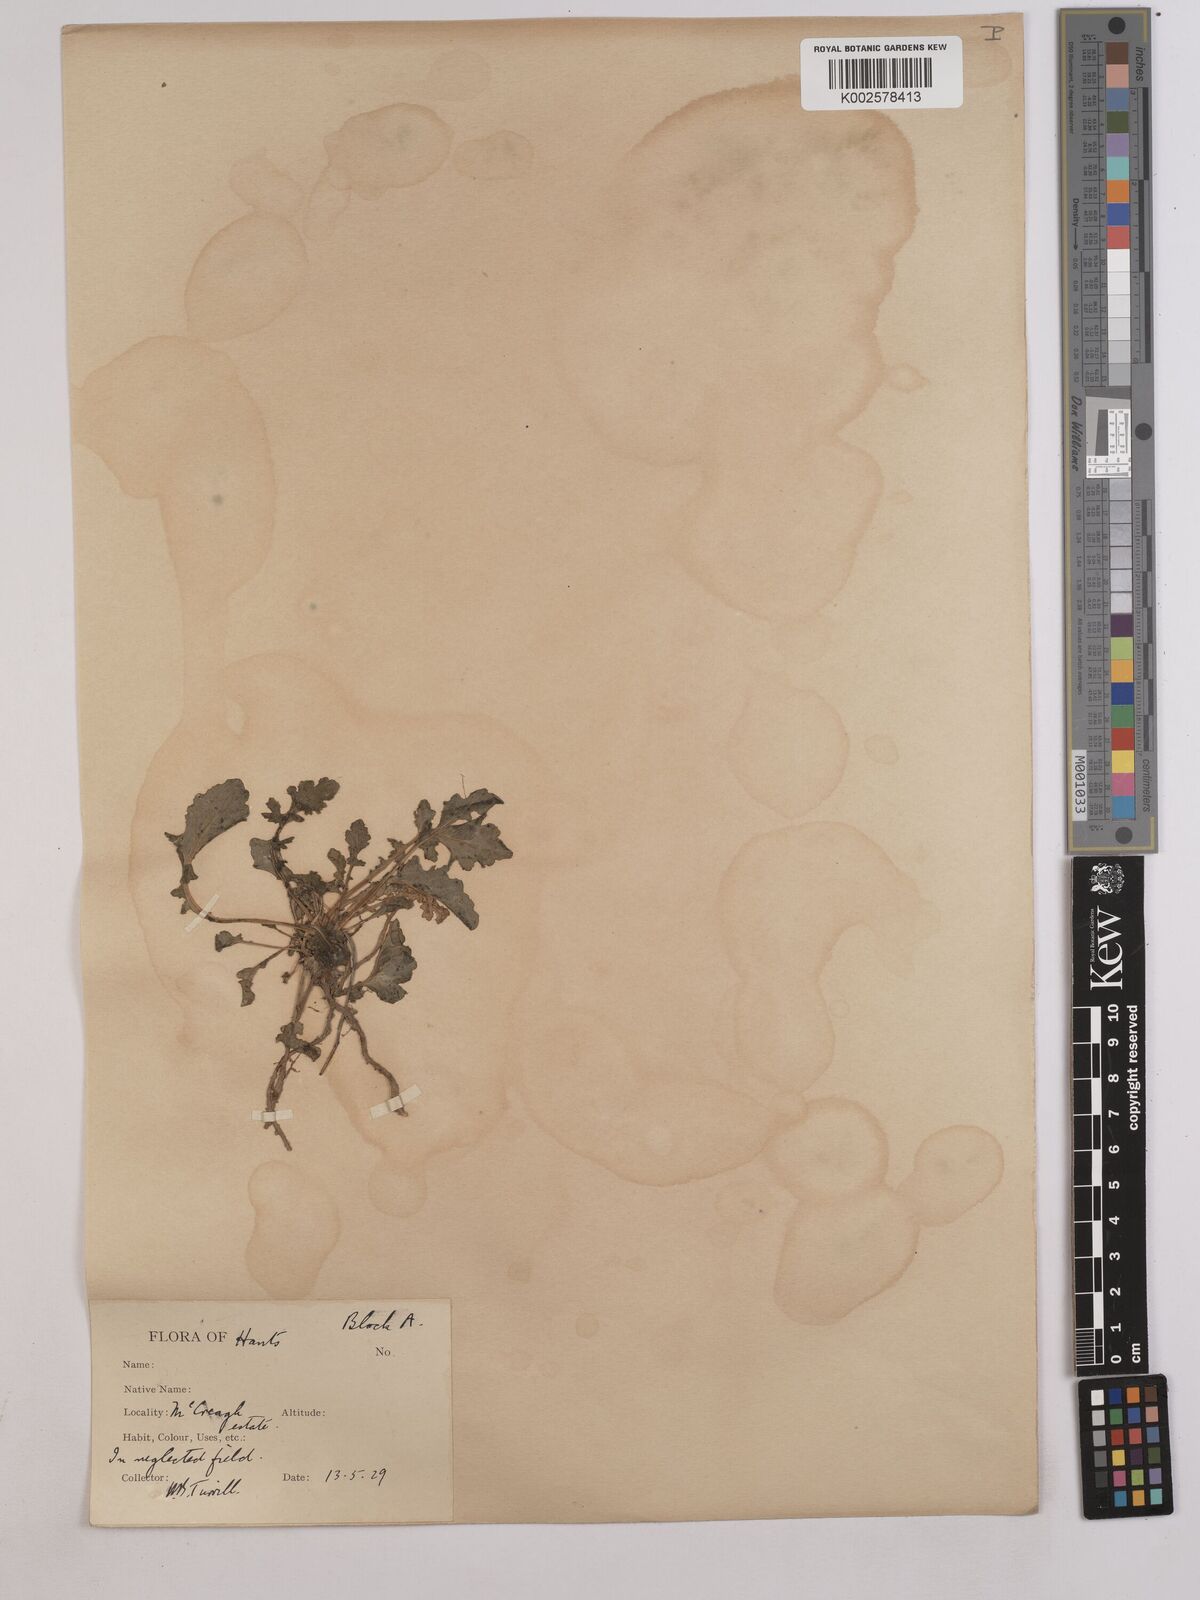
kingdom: Plantae
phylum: Tracheophyta
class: Magnoliopsida
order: Asterales
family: Asteraceae
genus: Jacobaea
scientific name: Jacobaea vulgaris
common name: Stinking willie
